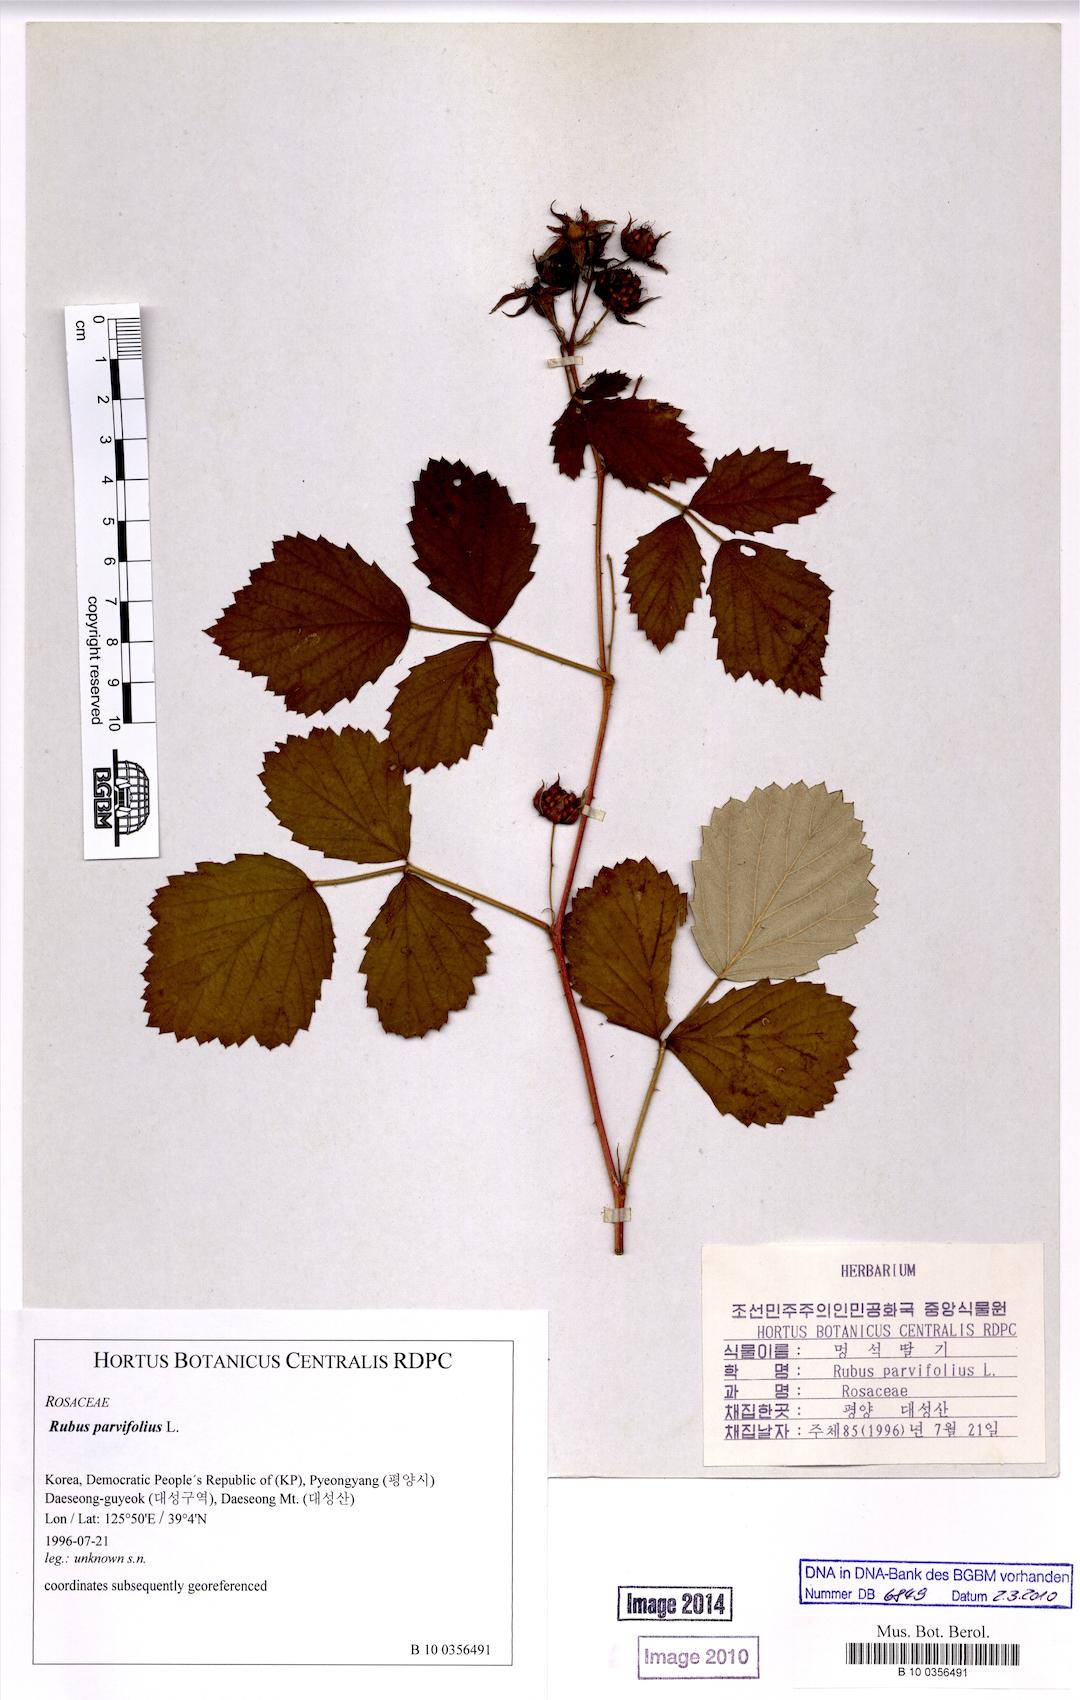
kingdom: Plantae
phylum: Tracheophyta
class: Magnoliopsida
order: Rosales
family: Rosaceae
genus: Rubus
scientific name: Rubus parvifolius
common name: Threeleaf blackberry
